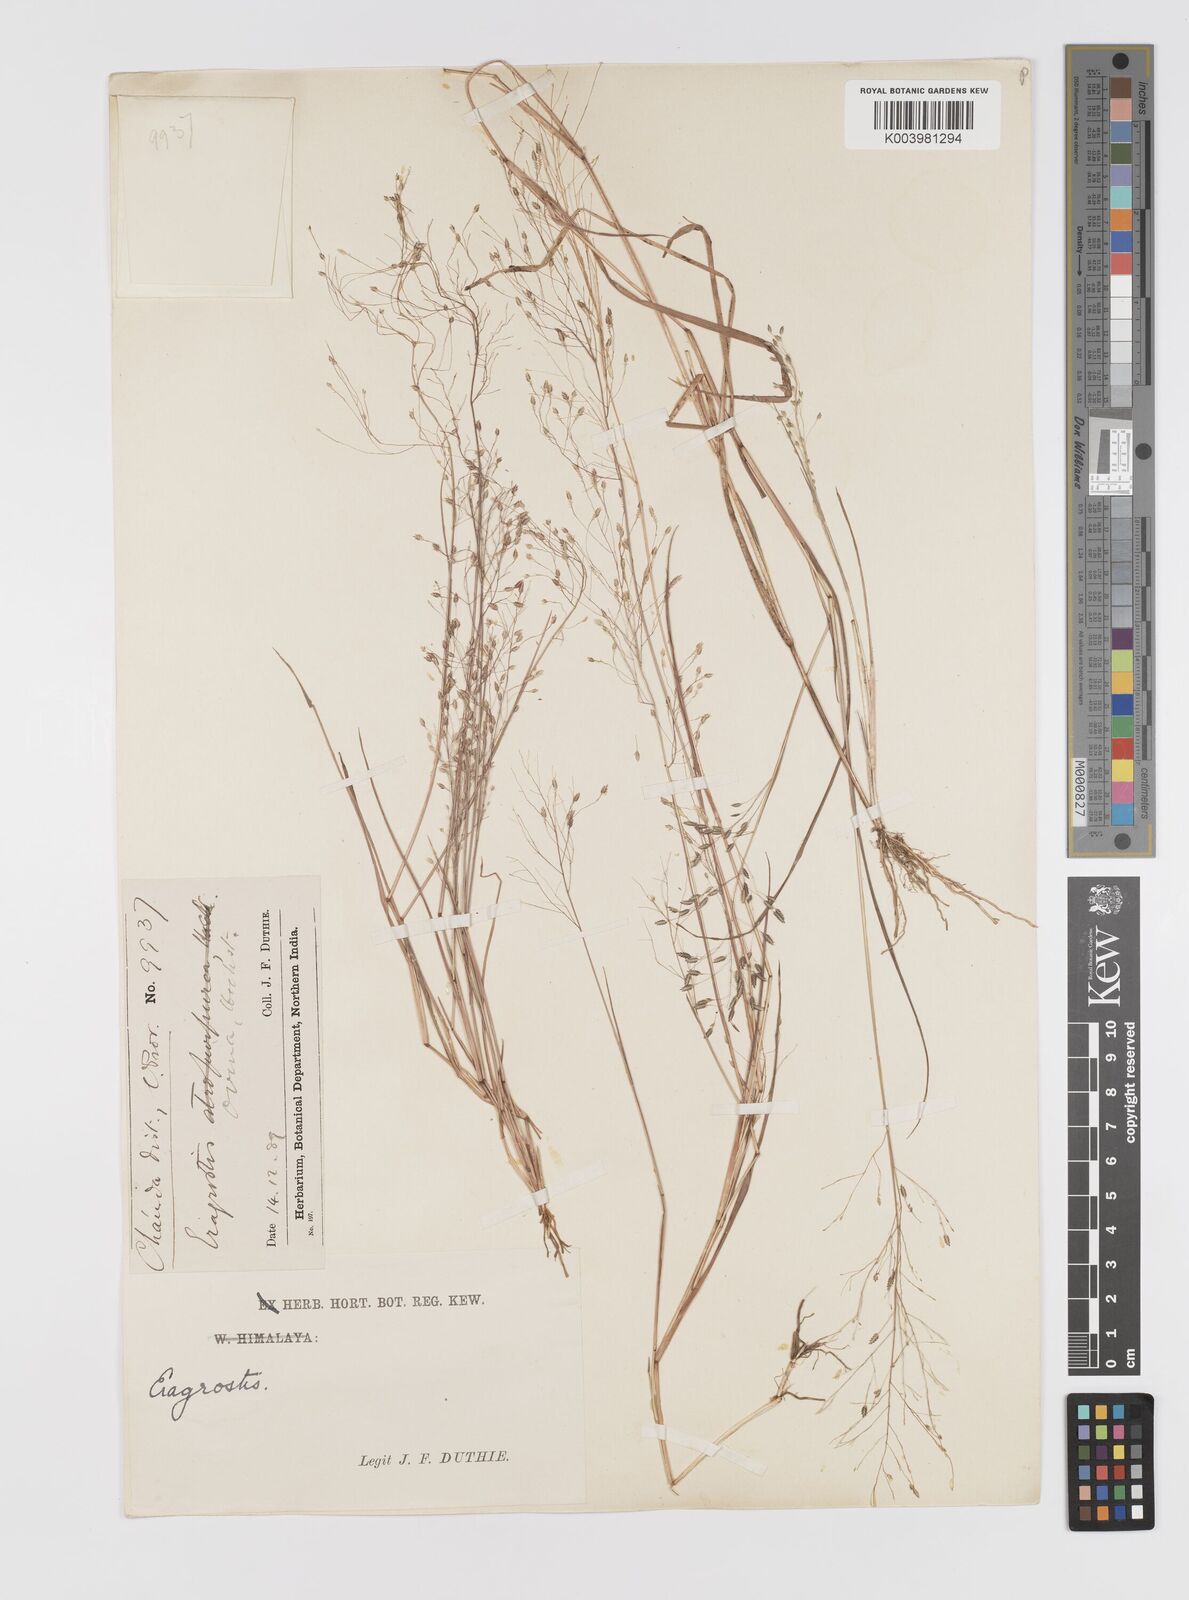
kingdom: Plantae
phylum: Tracheophyta
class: Liliopsida
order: Poales
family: Poaceae
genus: Eragrostis
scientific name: Eragrostis gangetica
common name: Slimflower lovegrass
